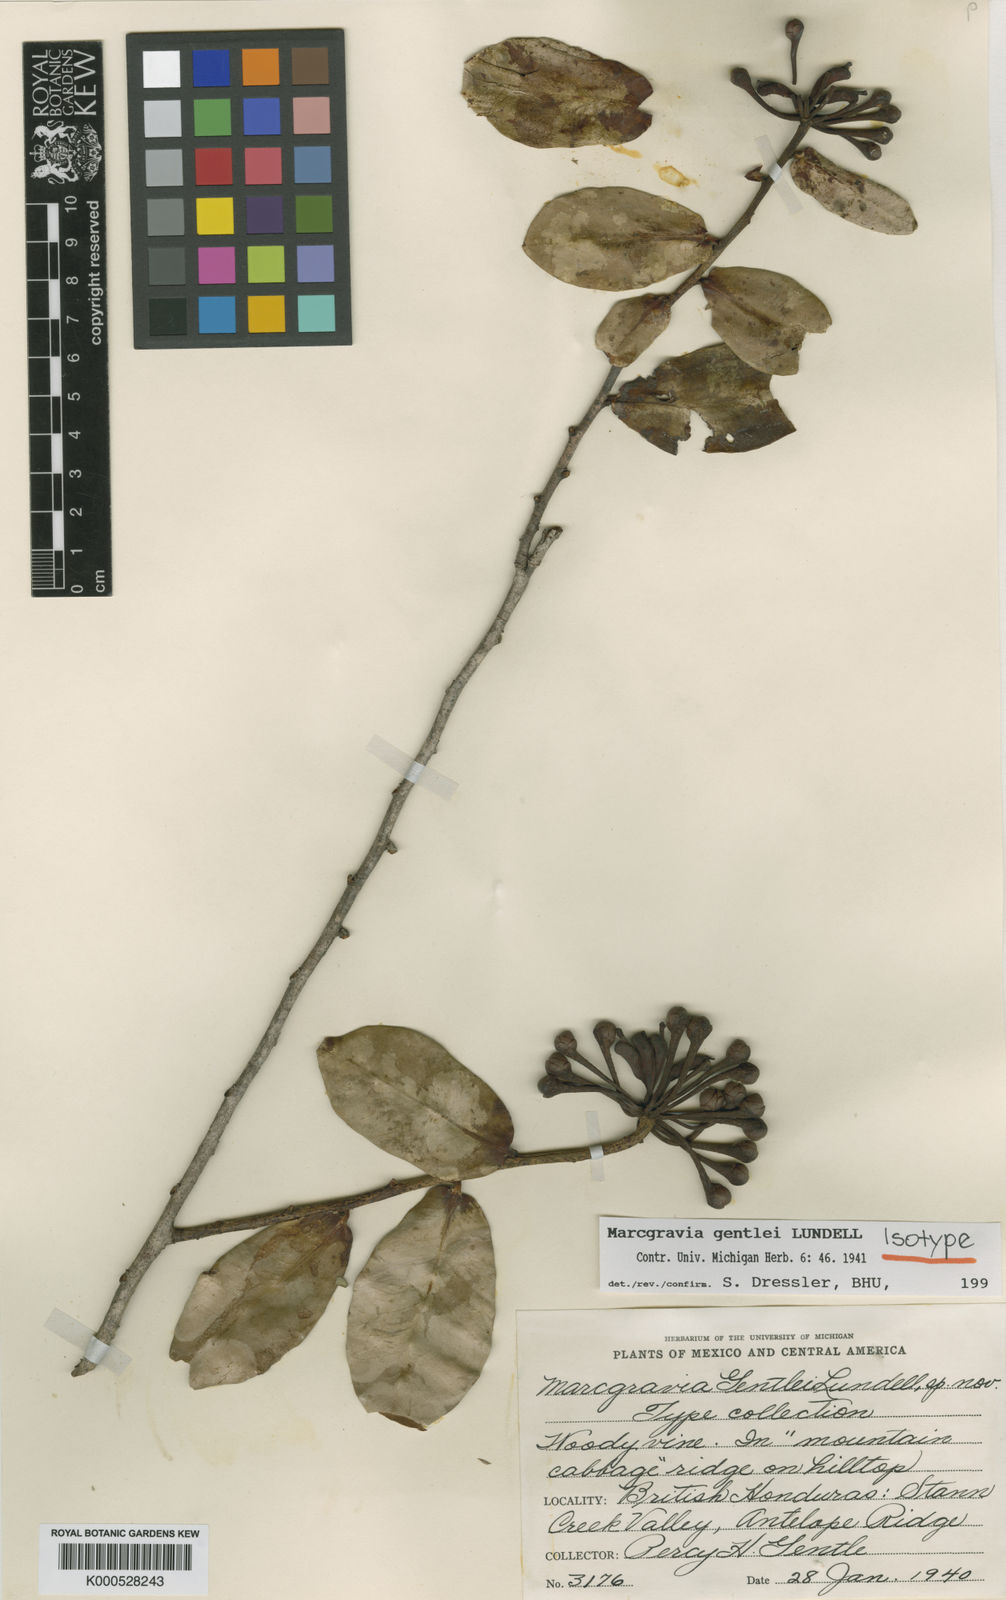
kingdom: Plantae
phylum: Tracheophyta
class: Magnoliopsida
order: Ericales
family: Marcgraviaceae
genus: Marcgravia
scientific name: Marcgravia gentlei
